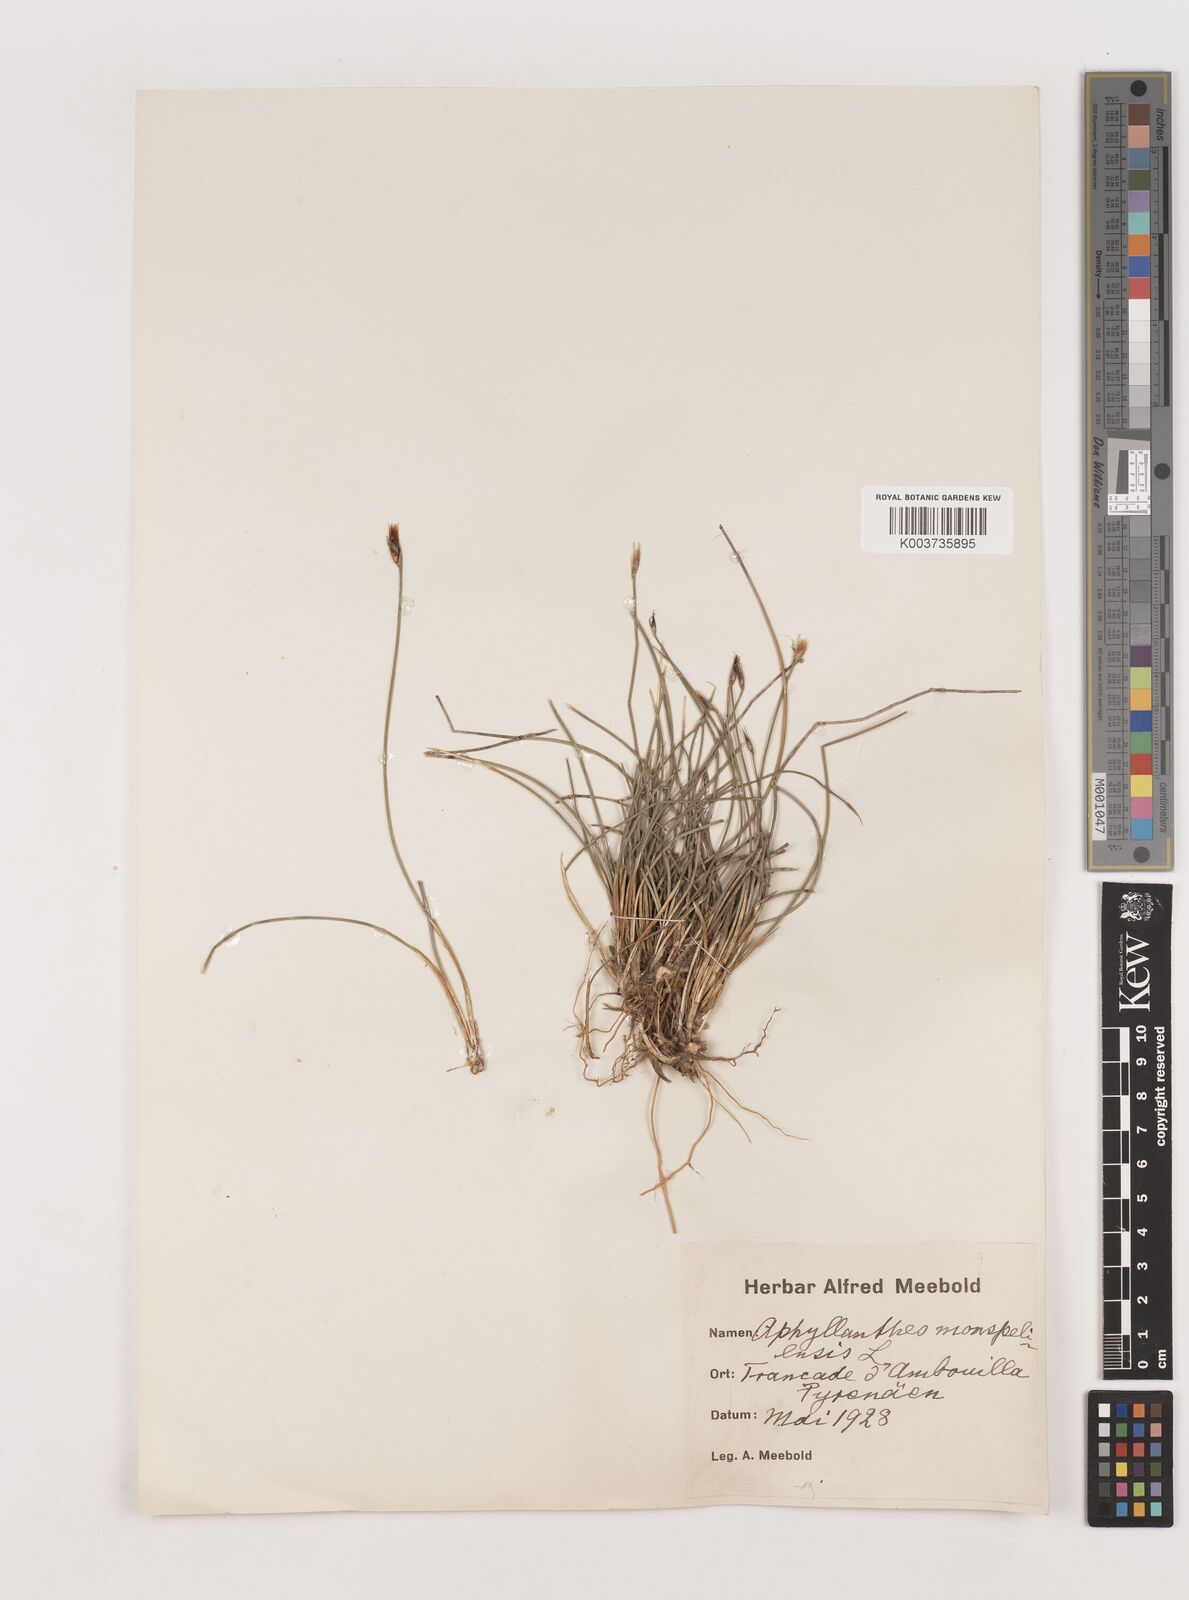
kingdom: Plantae
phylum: Tracheophyta
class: Liliopsida
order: Asparagales
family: Asparagaceae
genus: Aphyllanthes
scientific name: Aphyllanthes monspeliensis
